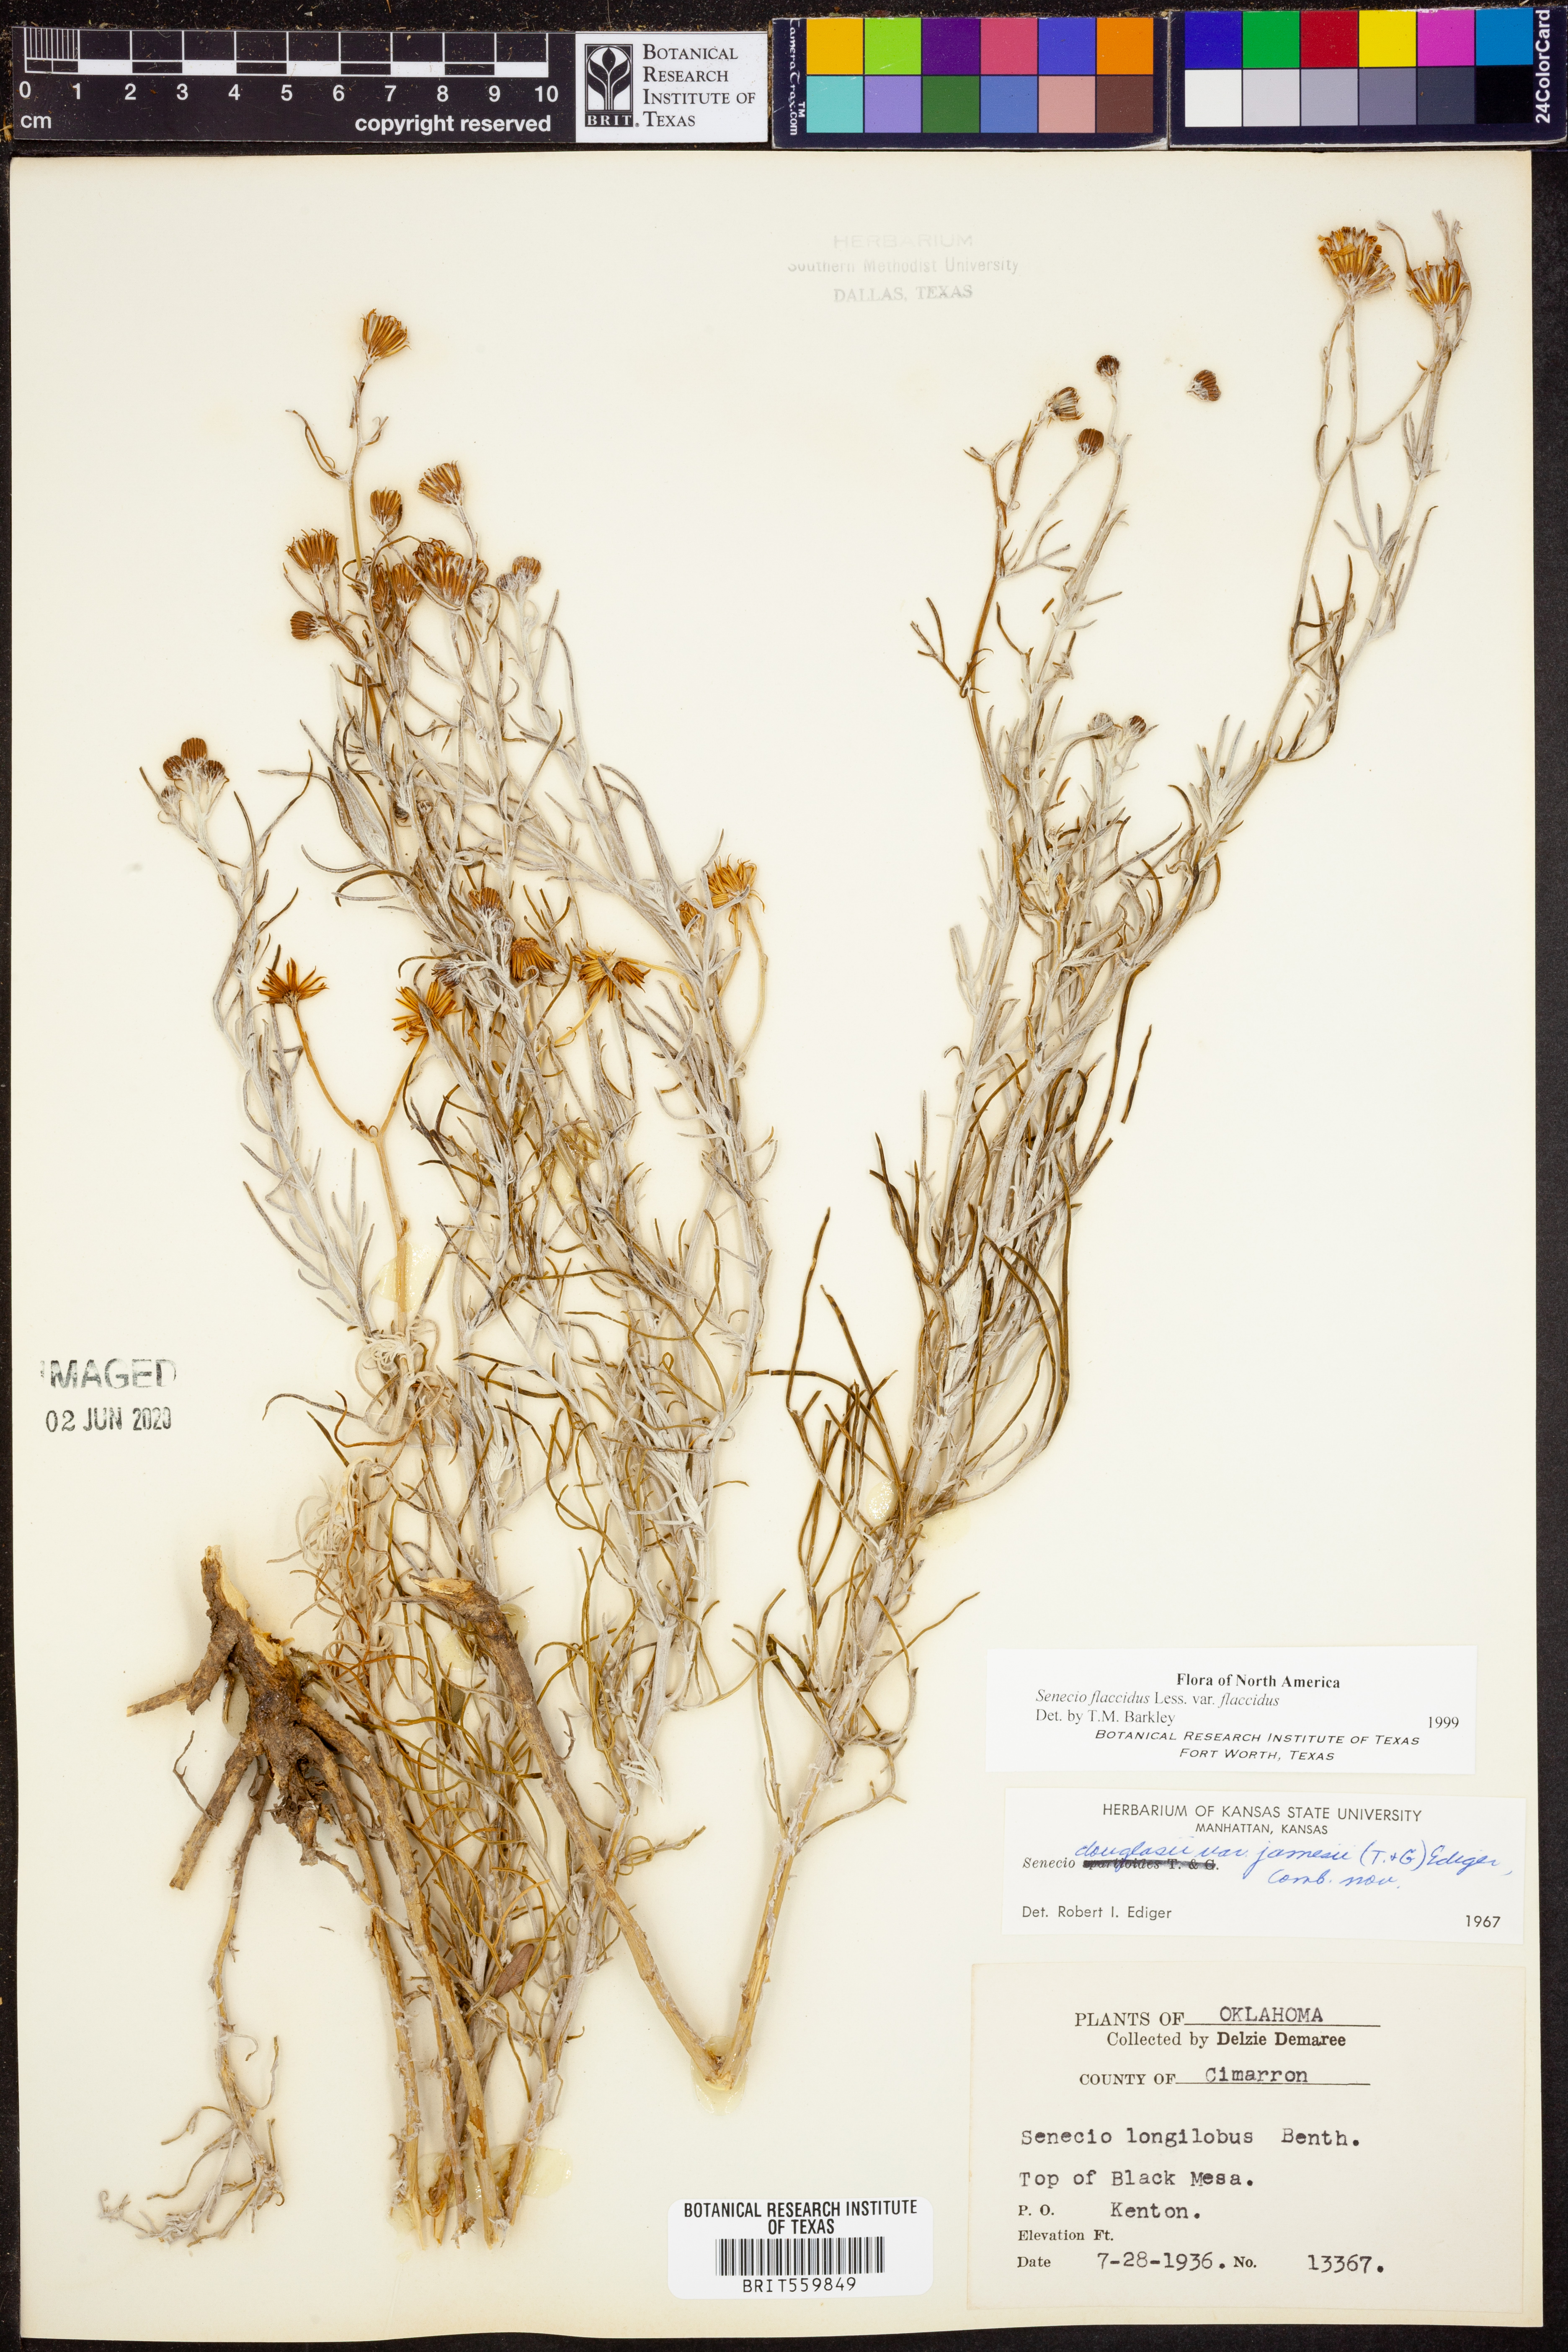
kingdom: Plantae
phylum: Tracheophyta
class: Magnoliopsida
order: Asterales
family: Asteraceae
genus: Senecio
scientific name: Senecio flaccidus
